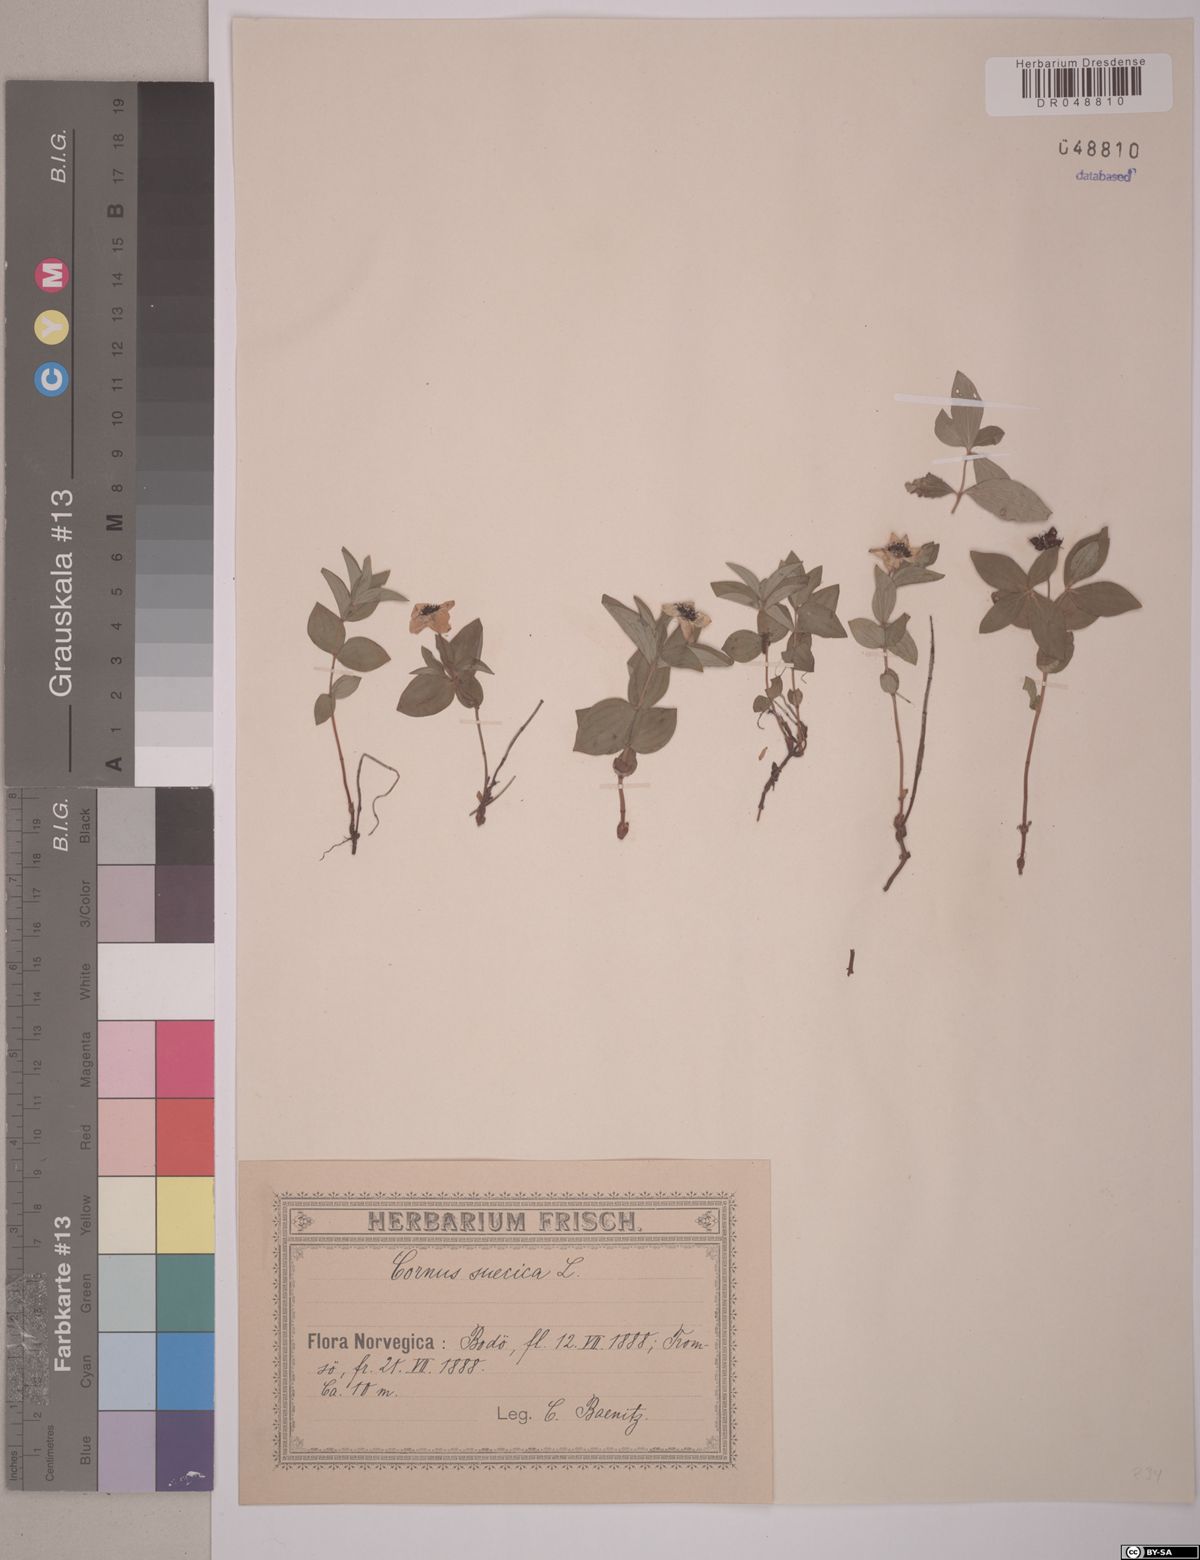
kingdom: Plantae
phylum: Tracheophyta
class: Magnoliopsida
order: Cornales
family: Cornaceae
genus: Cornus
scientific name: Cornus suecica
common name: Dwarf cornel
